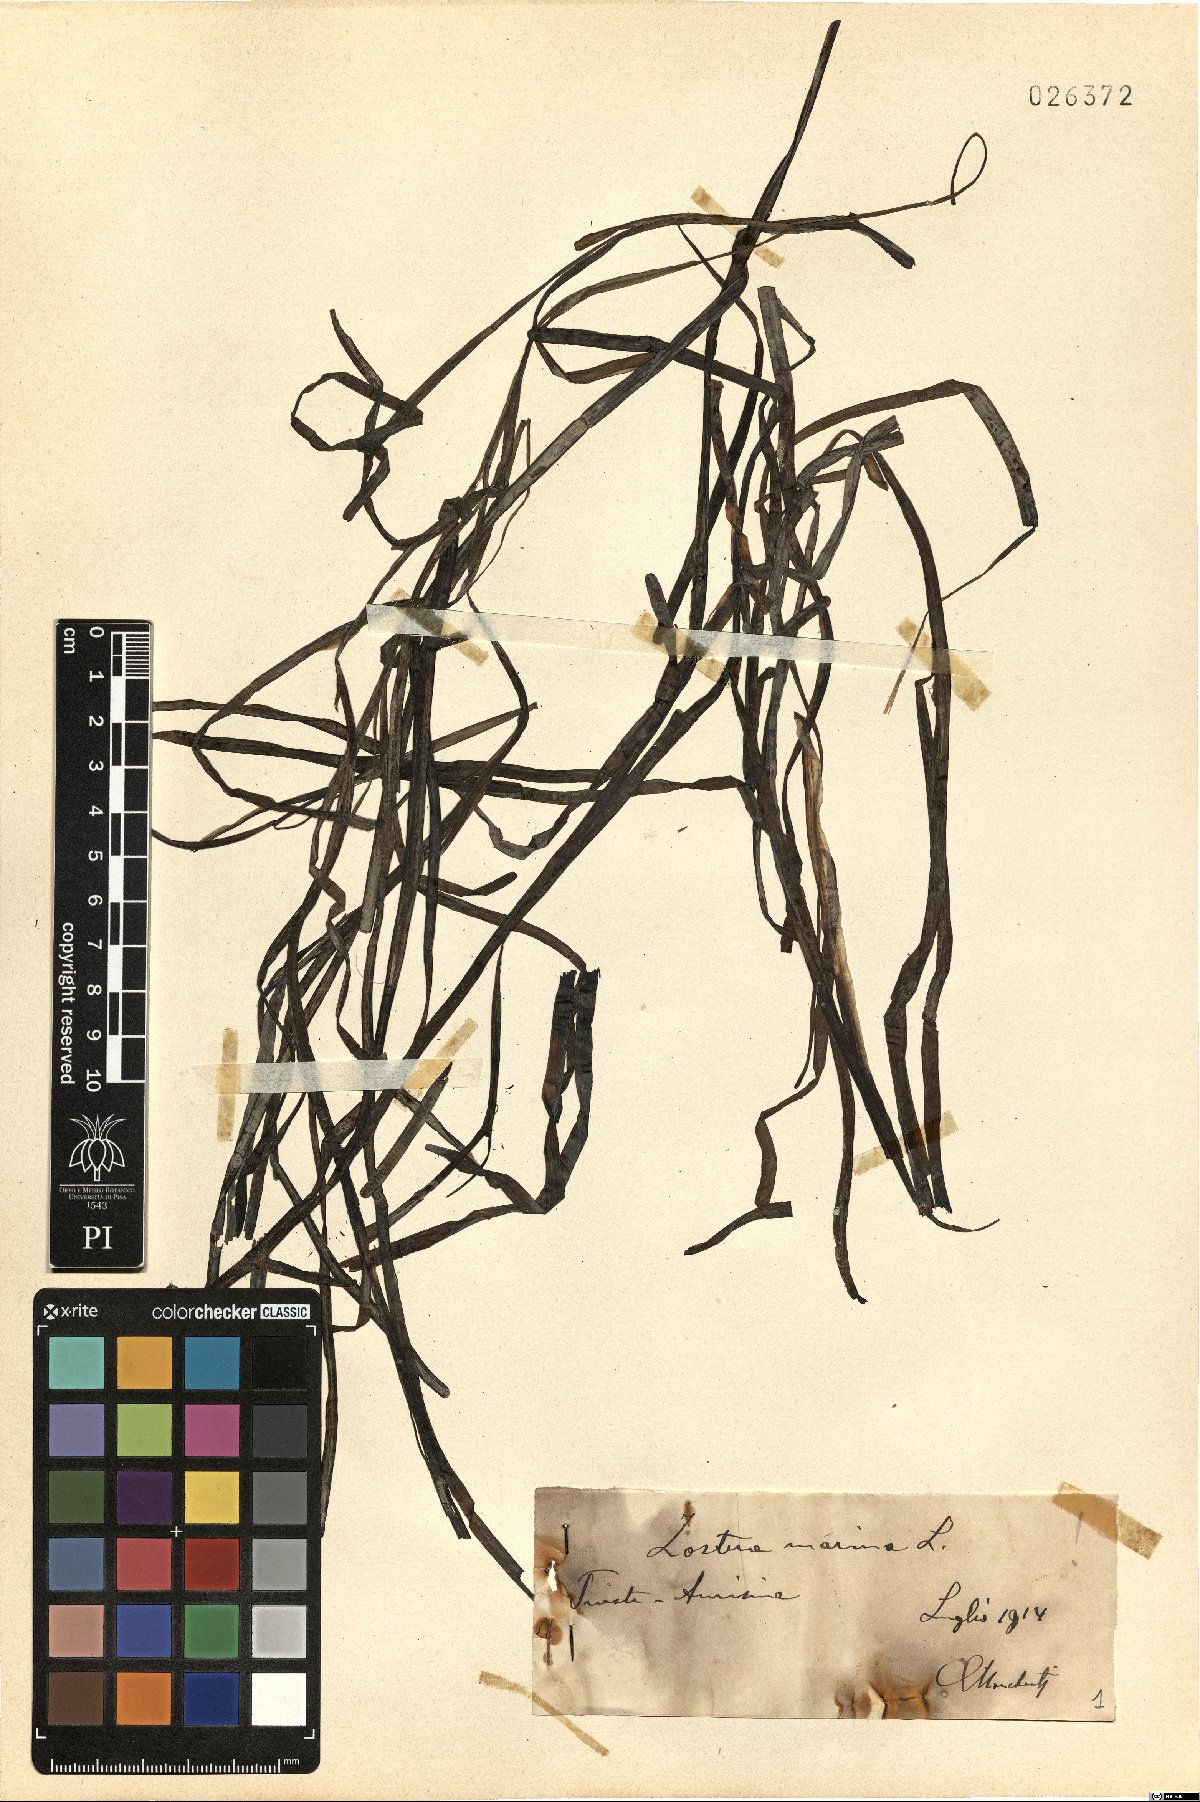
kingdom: Plantae
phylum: Tracheophyta
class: Liliopsida
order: Alismatales
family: Zosteraceae
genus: Zostera
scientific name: Zostera marina
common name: Eelgrass
